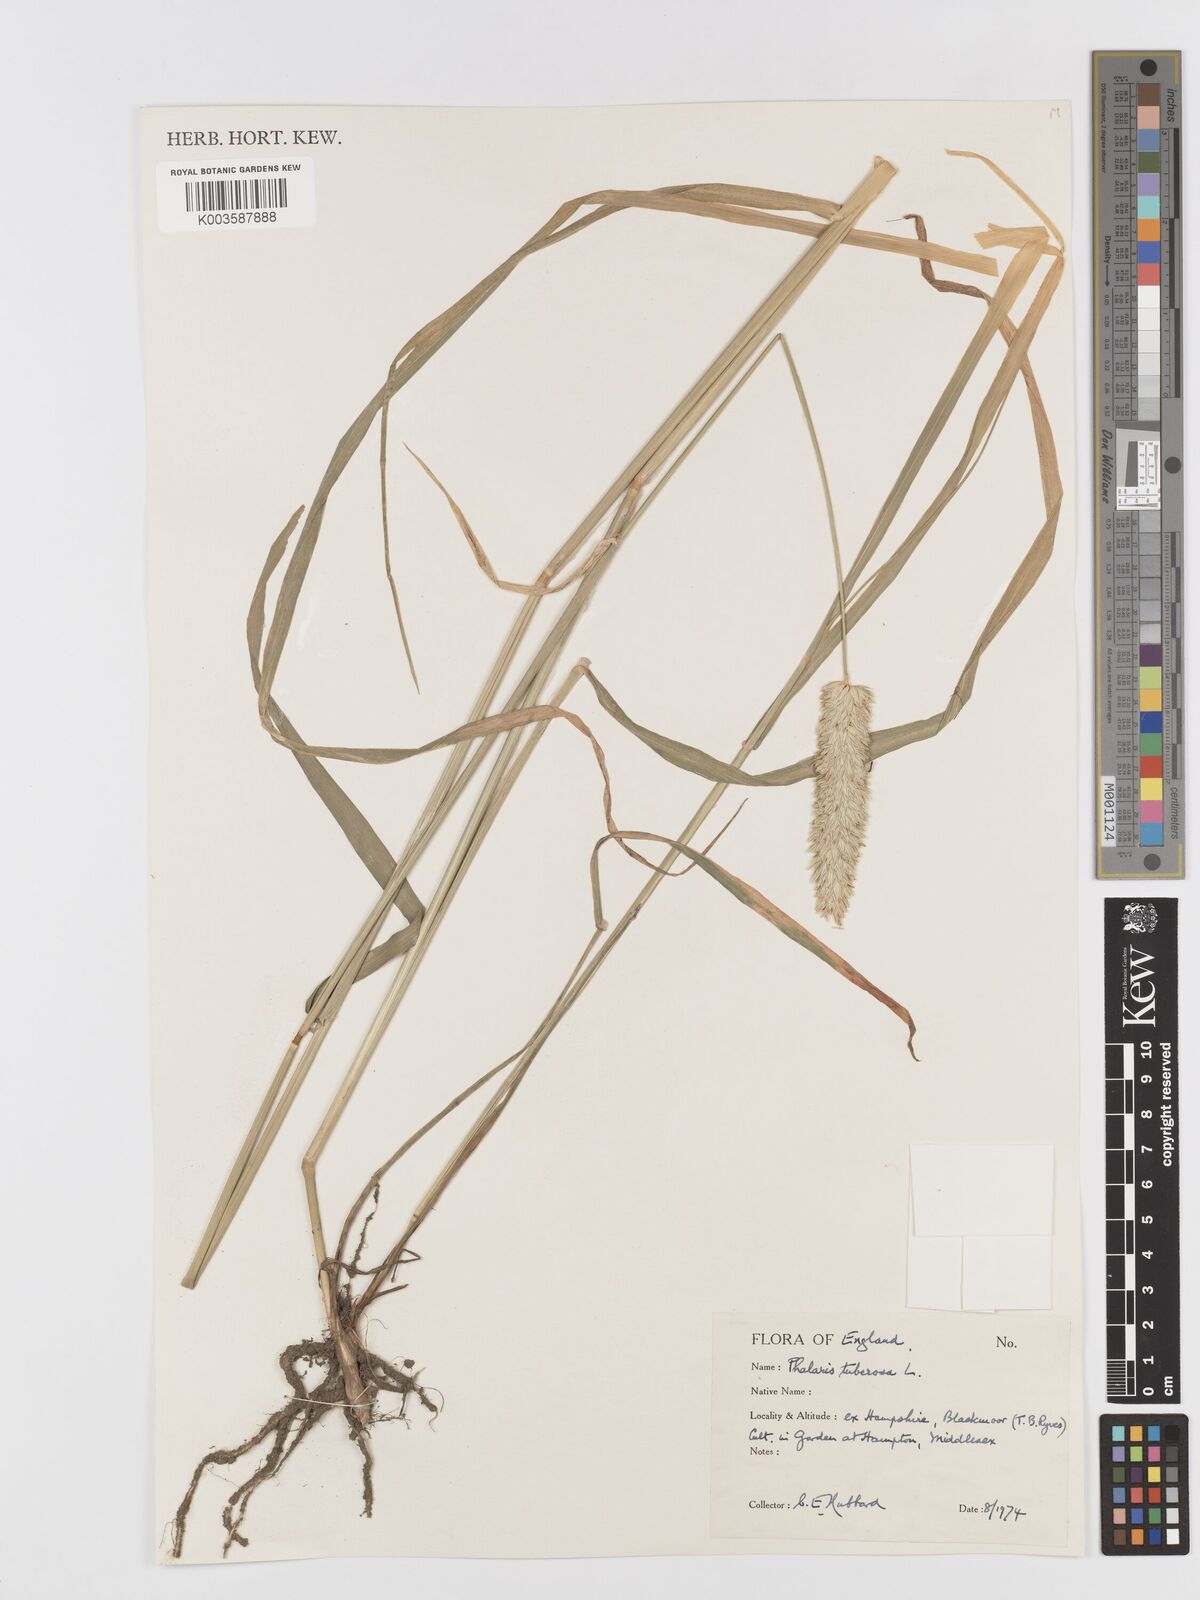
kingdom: Plantae
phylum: Tracheophyta
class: Liliopsida
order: Poales
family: Poaceae
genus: Phalaris
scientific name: Phalaris
